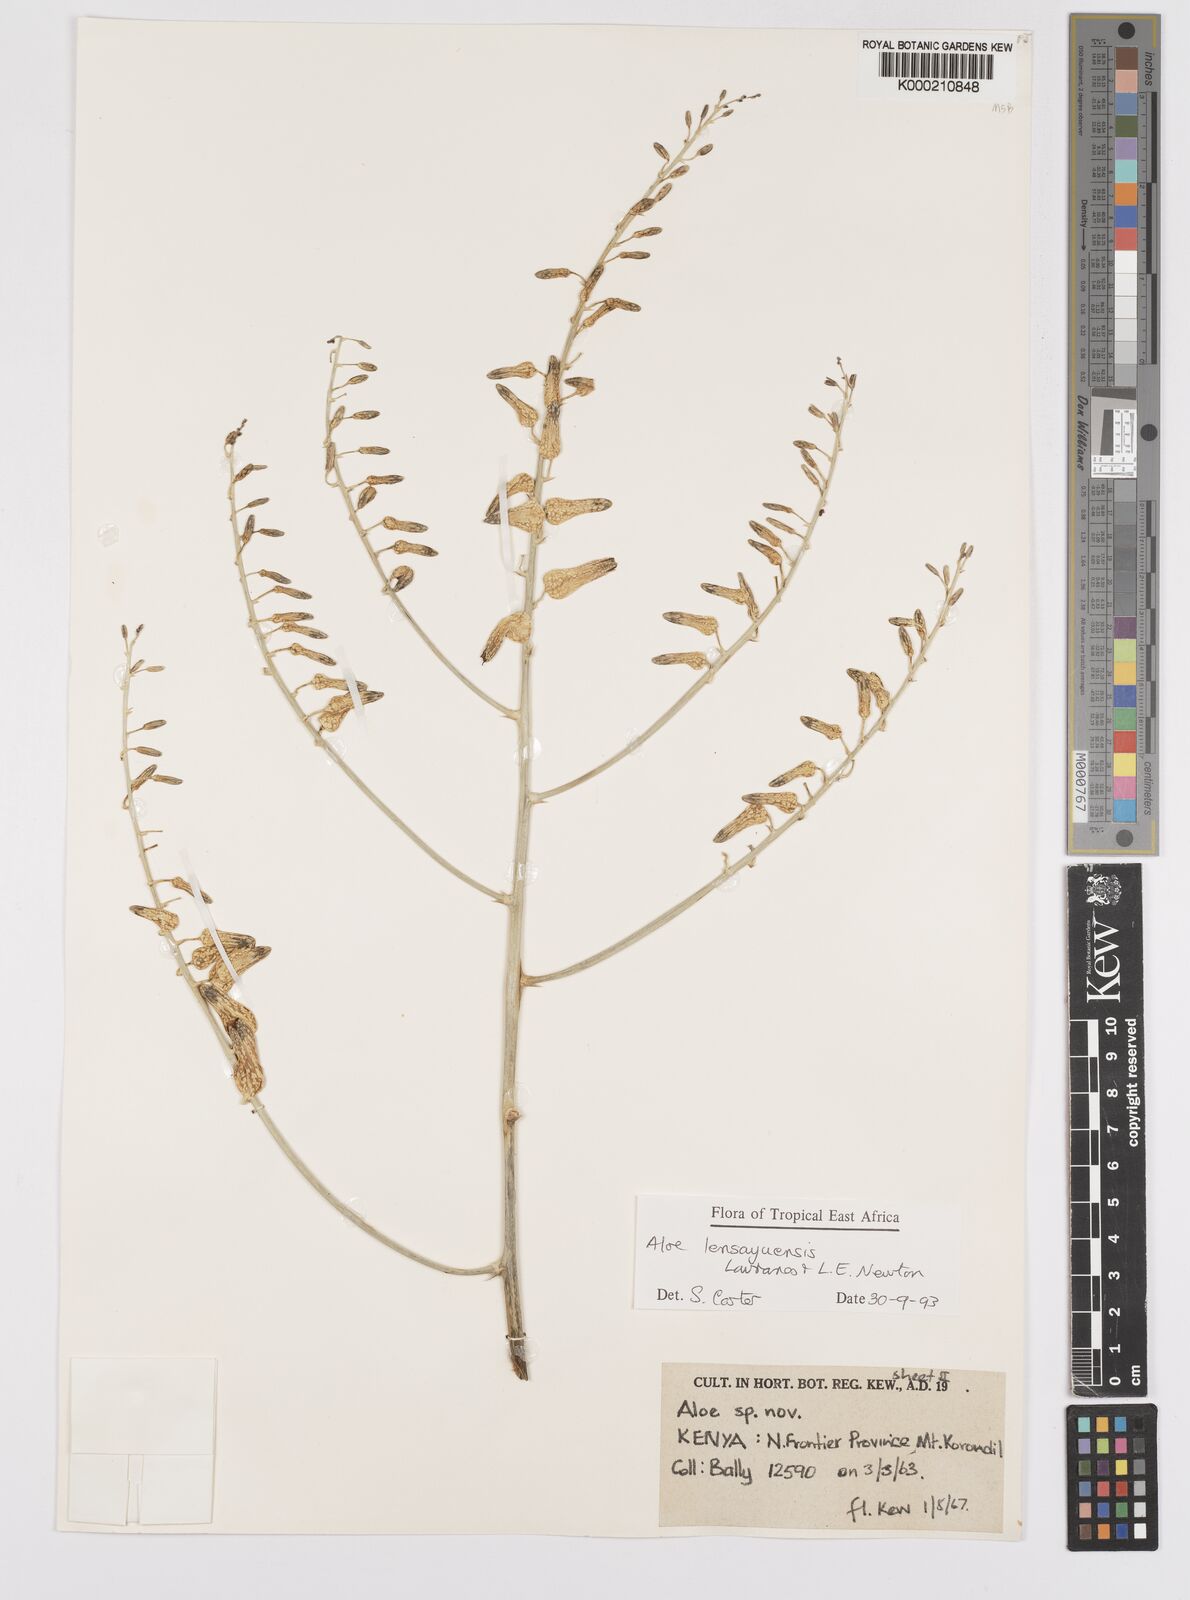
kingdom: Plantae
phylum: Tracheophyta
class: Liliopsida
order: Asparagales
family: Asphodelaceae
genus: Aloe
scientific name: Aloe lensayuensis
